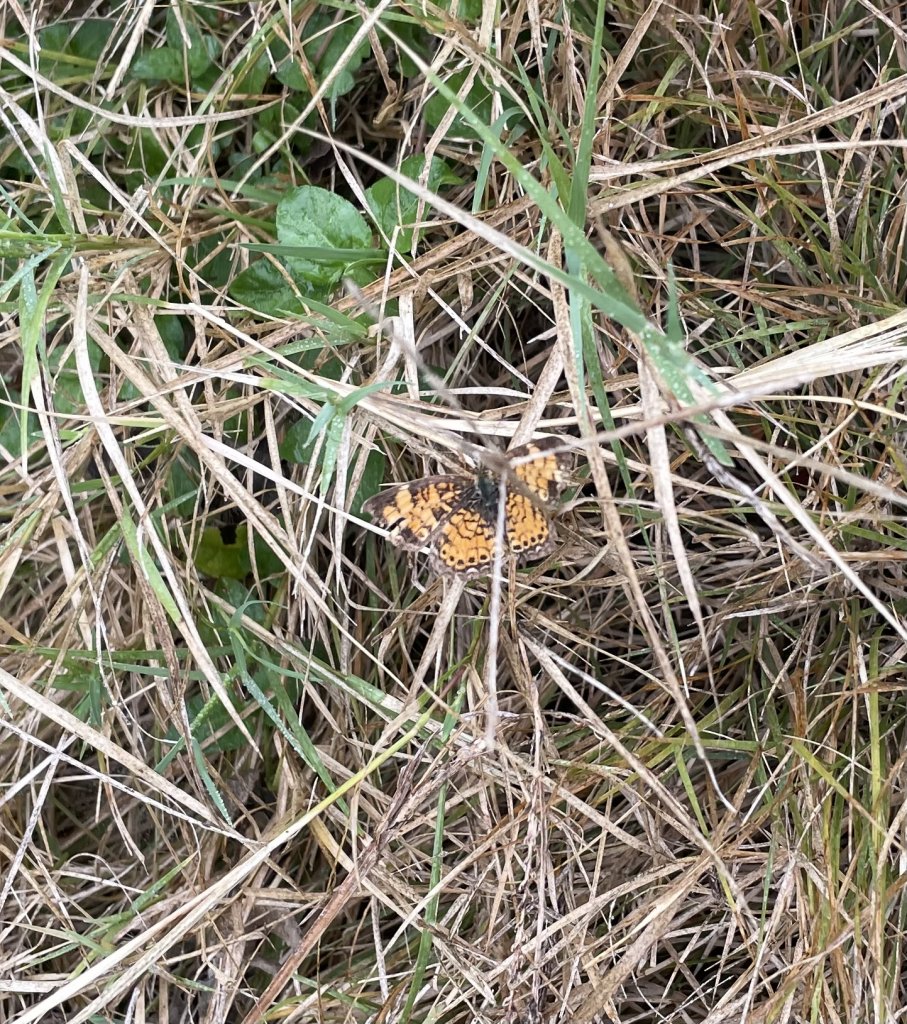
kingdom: Animalia
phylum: Arthropoda
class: Insecta
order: Lepidoptera
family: Nymphalidae
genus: Phyciodes
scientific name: Phyciodes tharos
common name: Pearl Crescent
